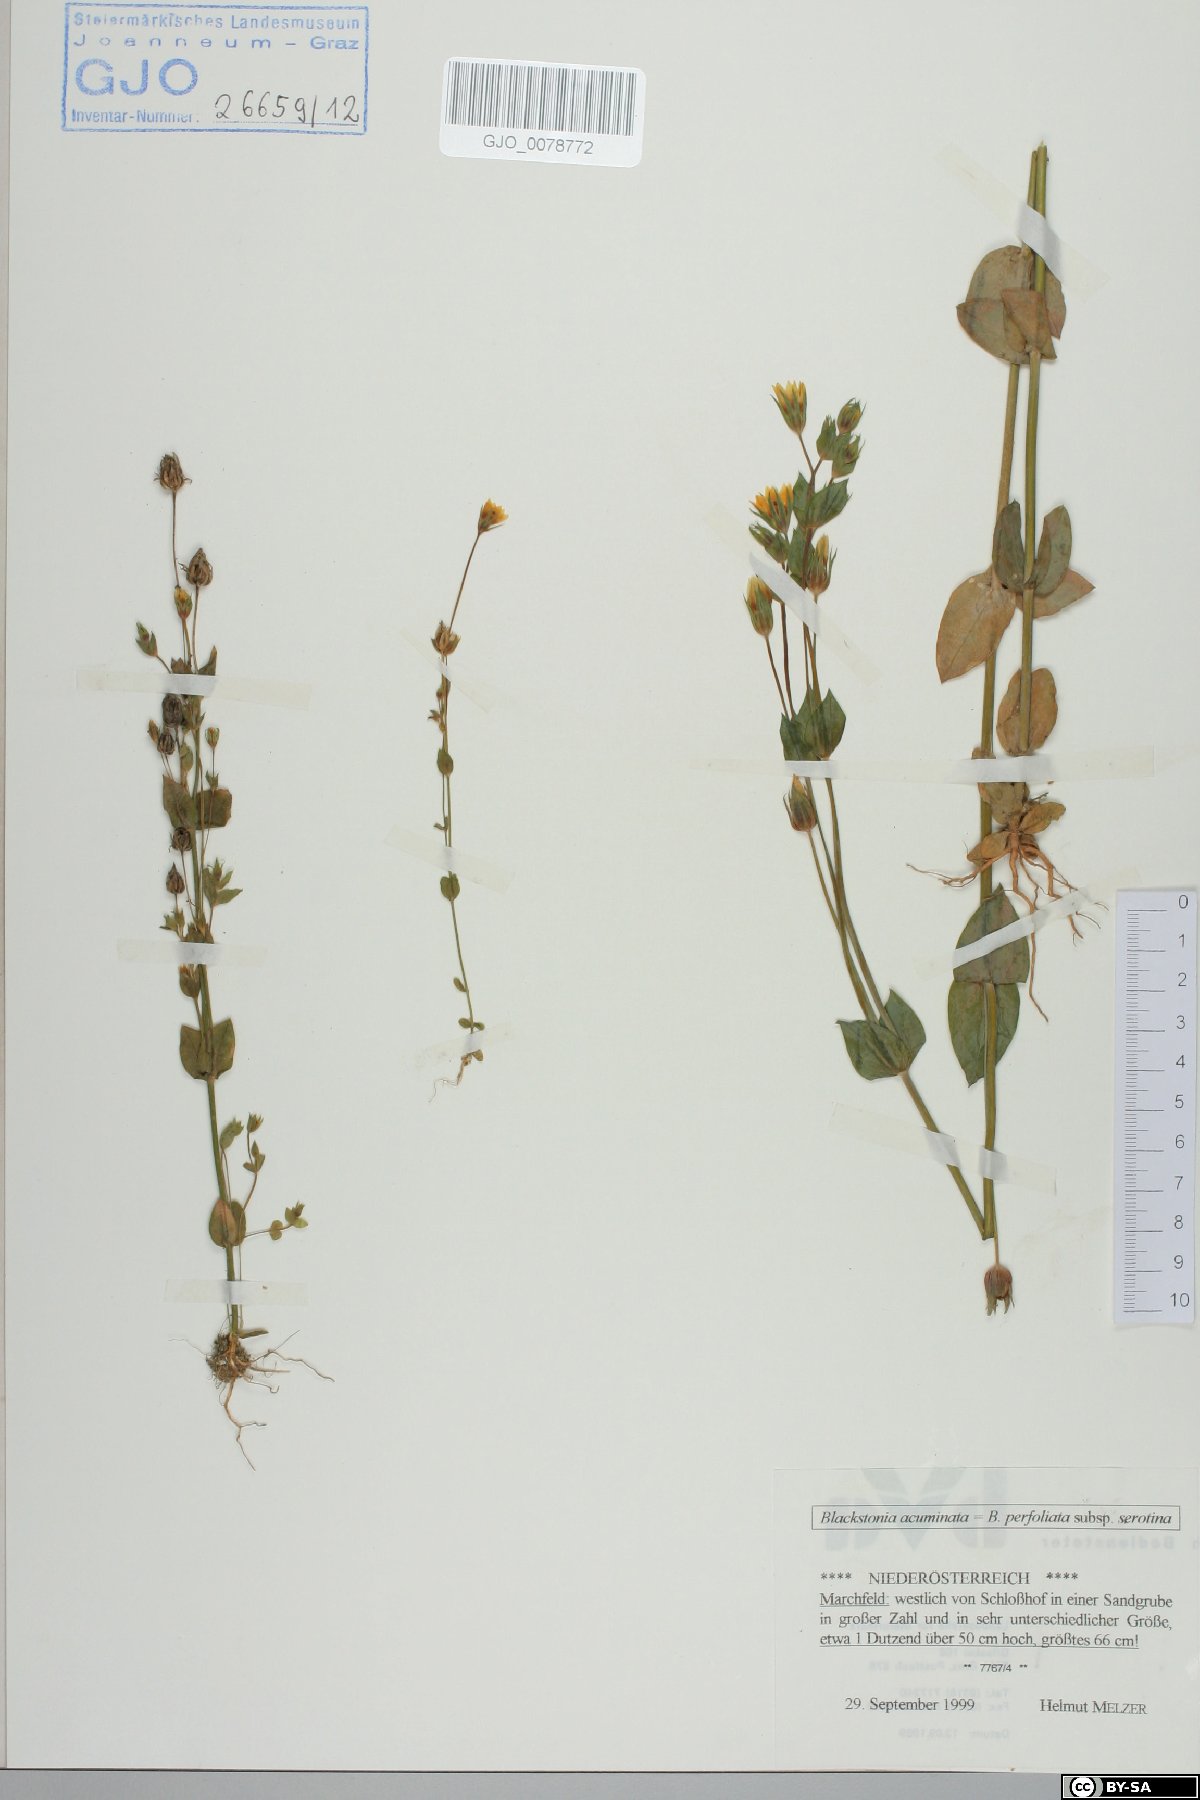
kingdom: Plantae
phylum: Tracheophyta
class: Magnoliopsida
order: Gentianales
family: Gentianaceae
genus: Blackstonia
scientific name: Blackstonia acuminata
